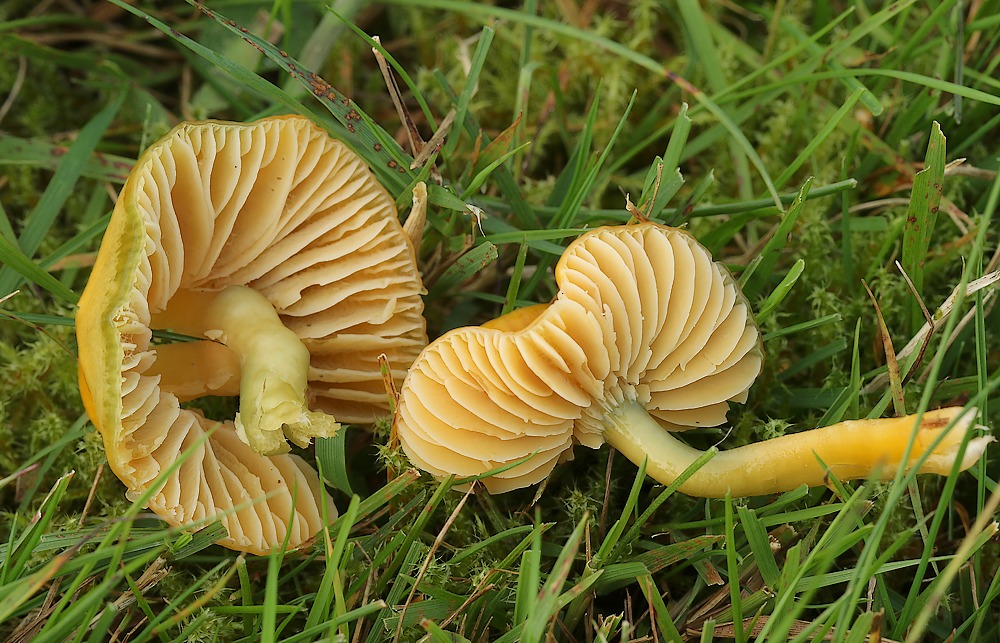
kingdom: Fungi
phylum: Basidiomycota
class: Agaricomycetes
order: Agaricales
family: Hygrophoraceae
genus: Gliophorus
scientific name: Gliophorus psittacinus
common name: papegøje-vokshat
